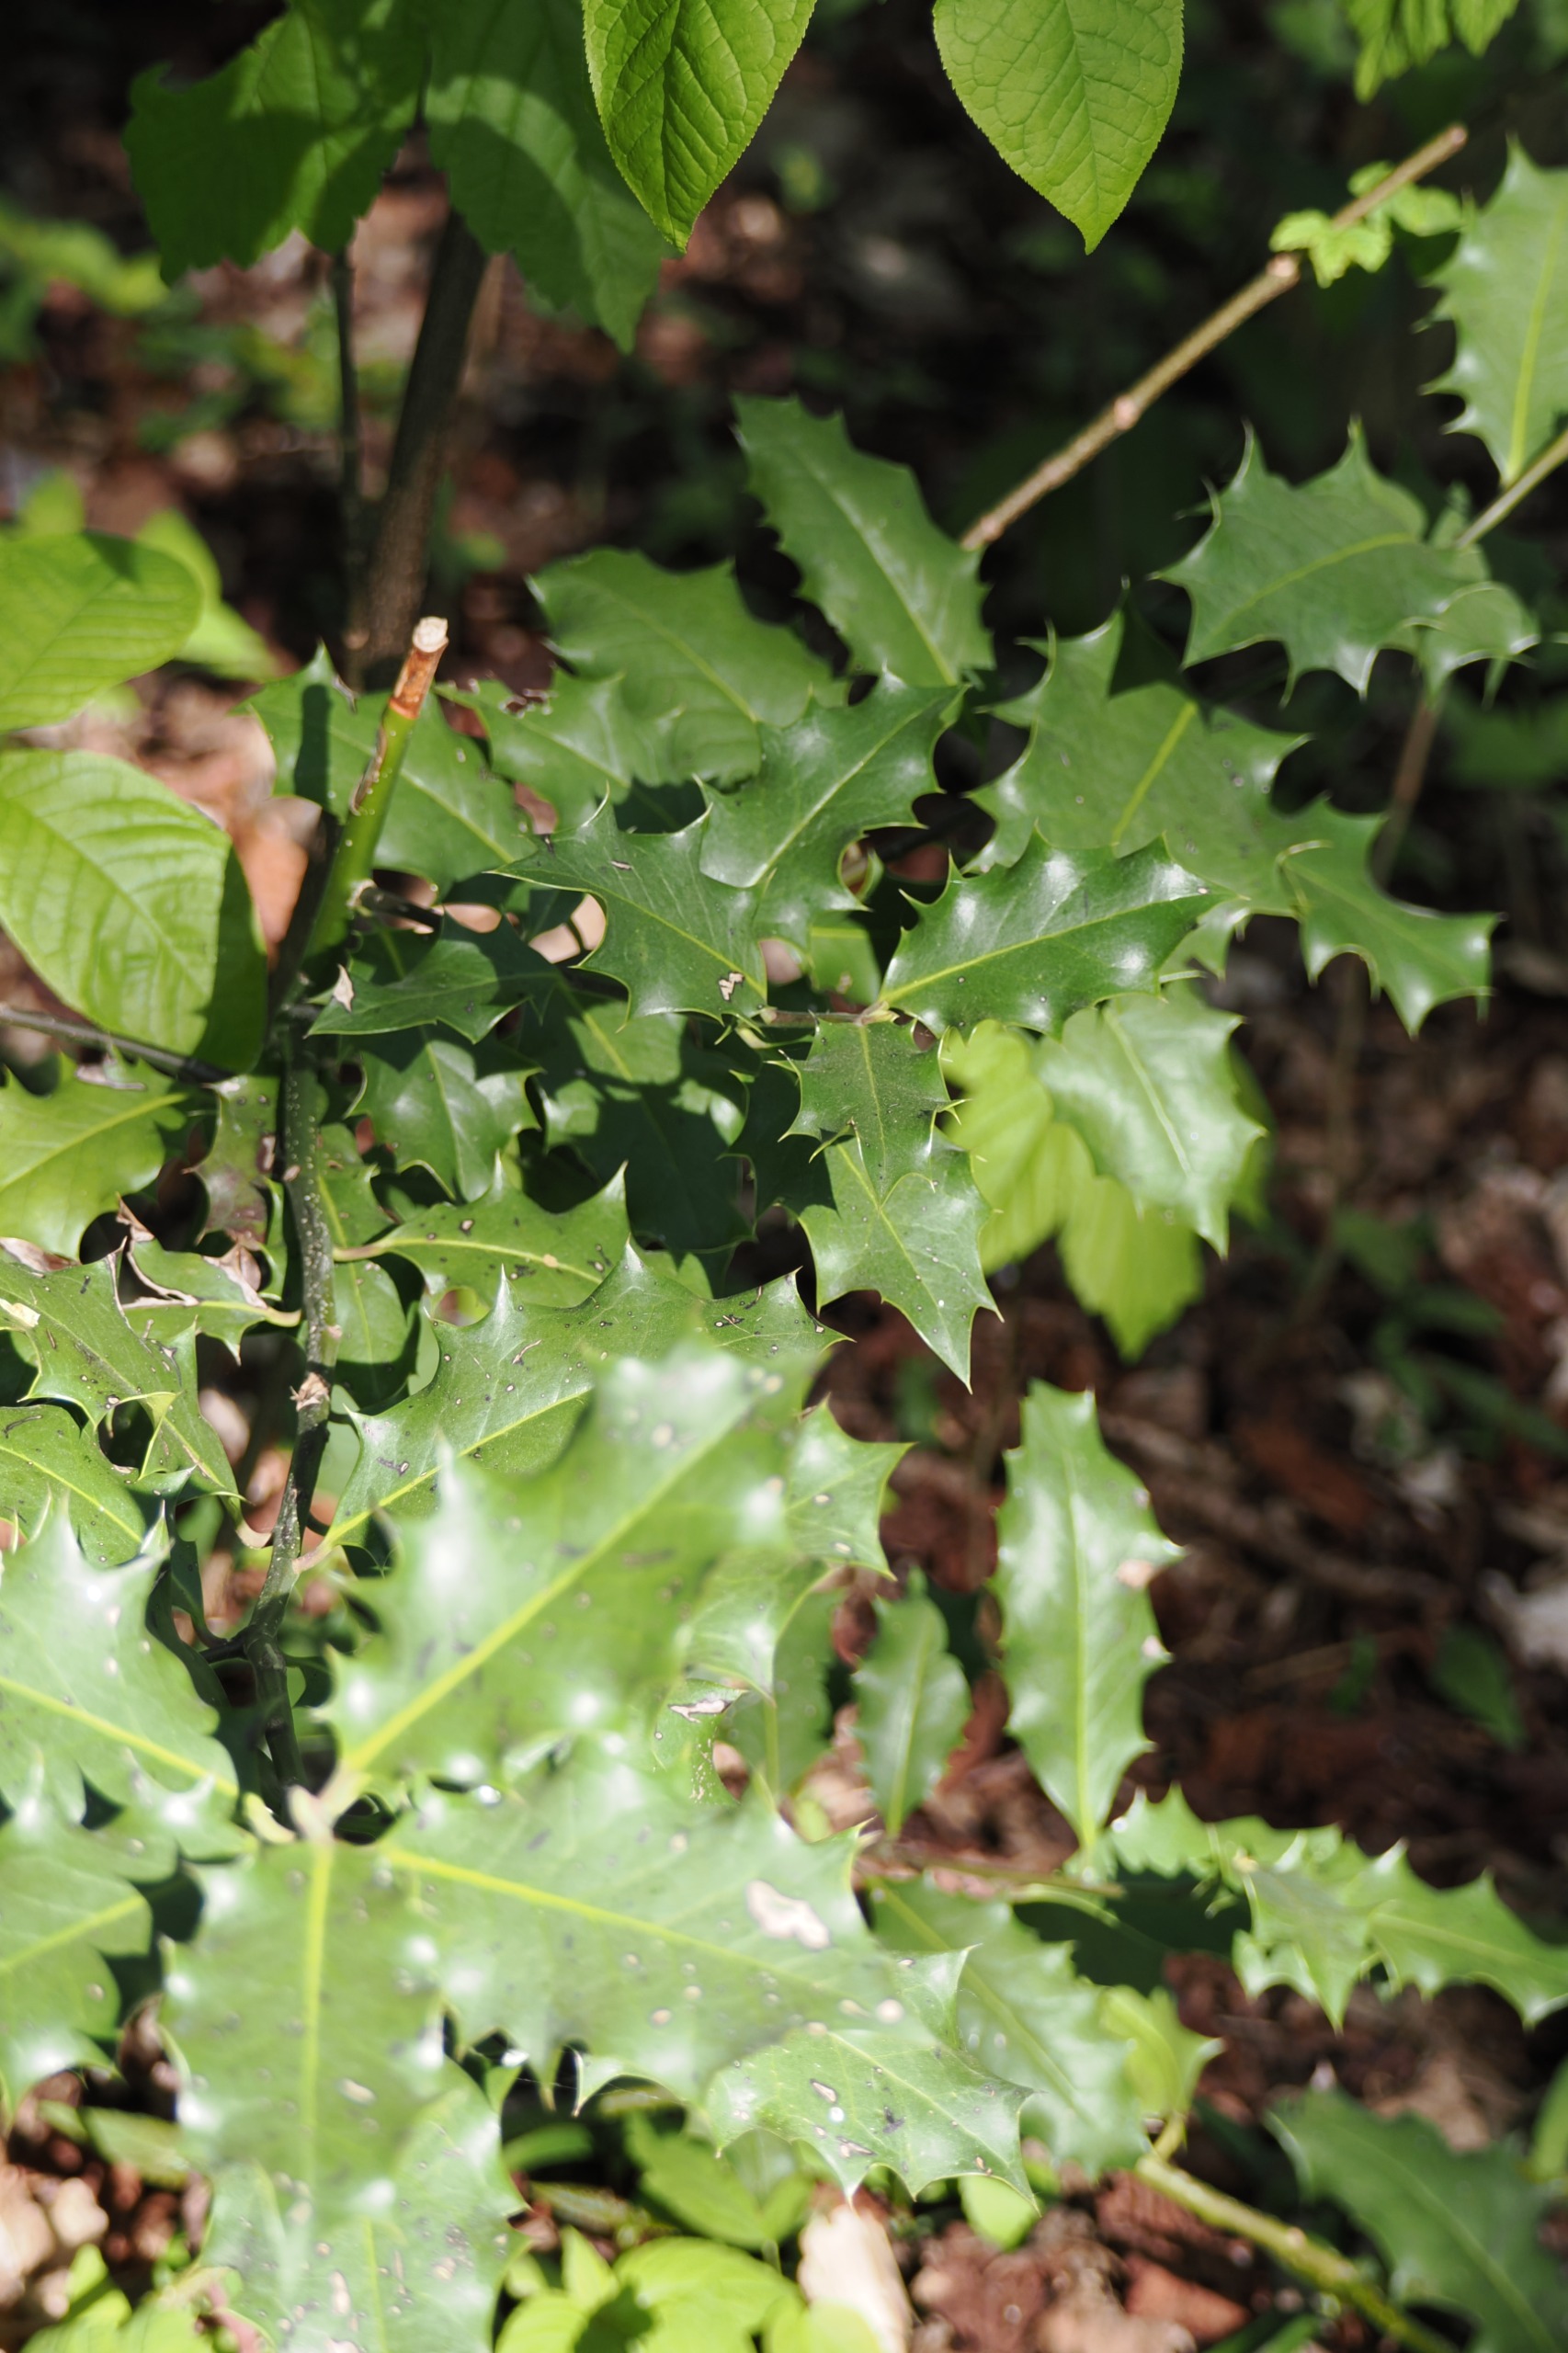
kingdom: Plantae
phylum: Tracheophyta
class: Magnoliopsida
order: Aquifoliales
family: Aquifoliaceae
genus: Ilex
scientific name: Ilex aquifolium
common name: Kristtorn
